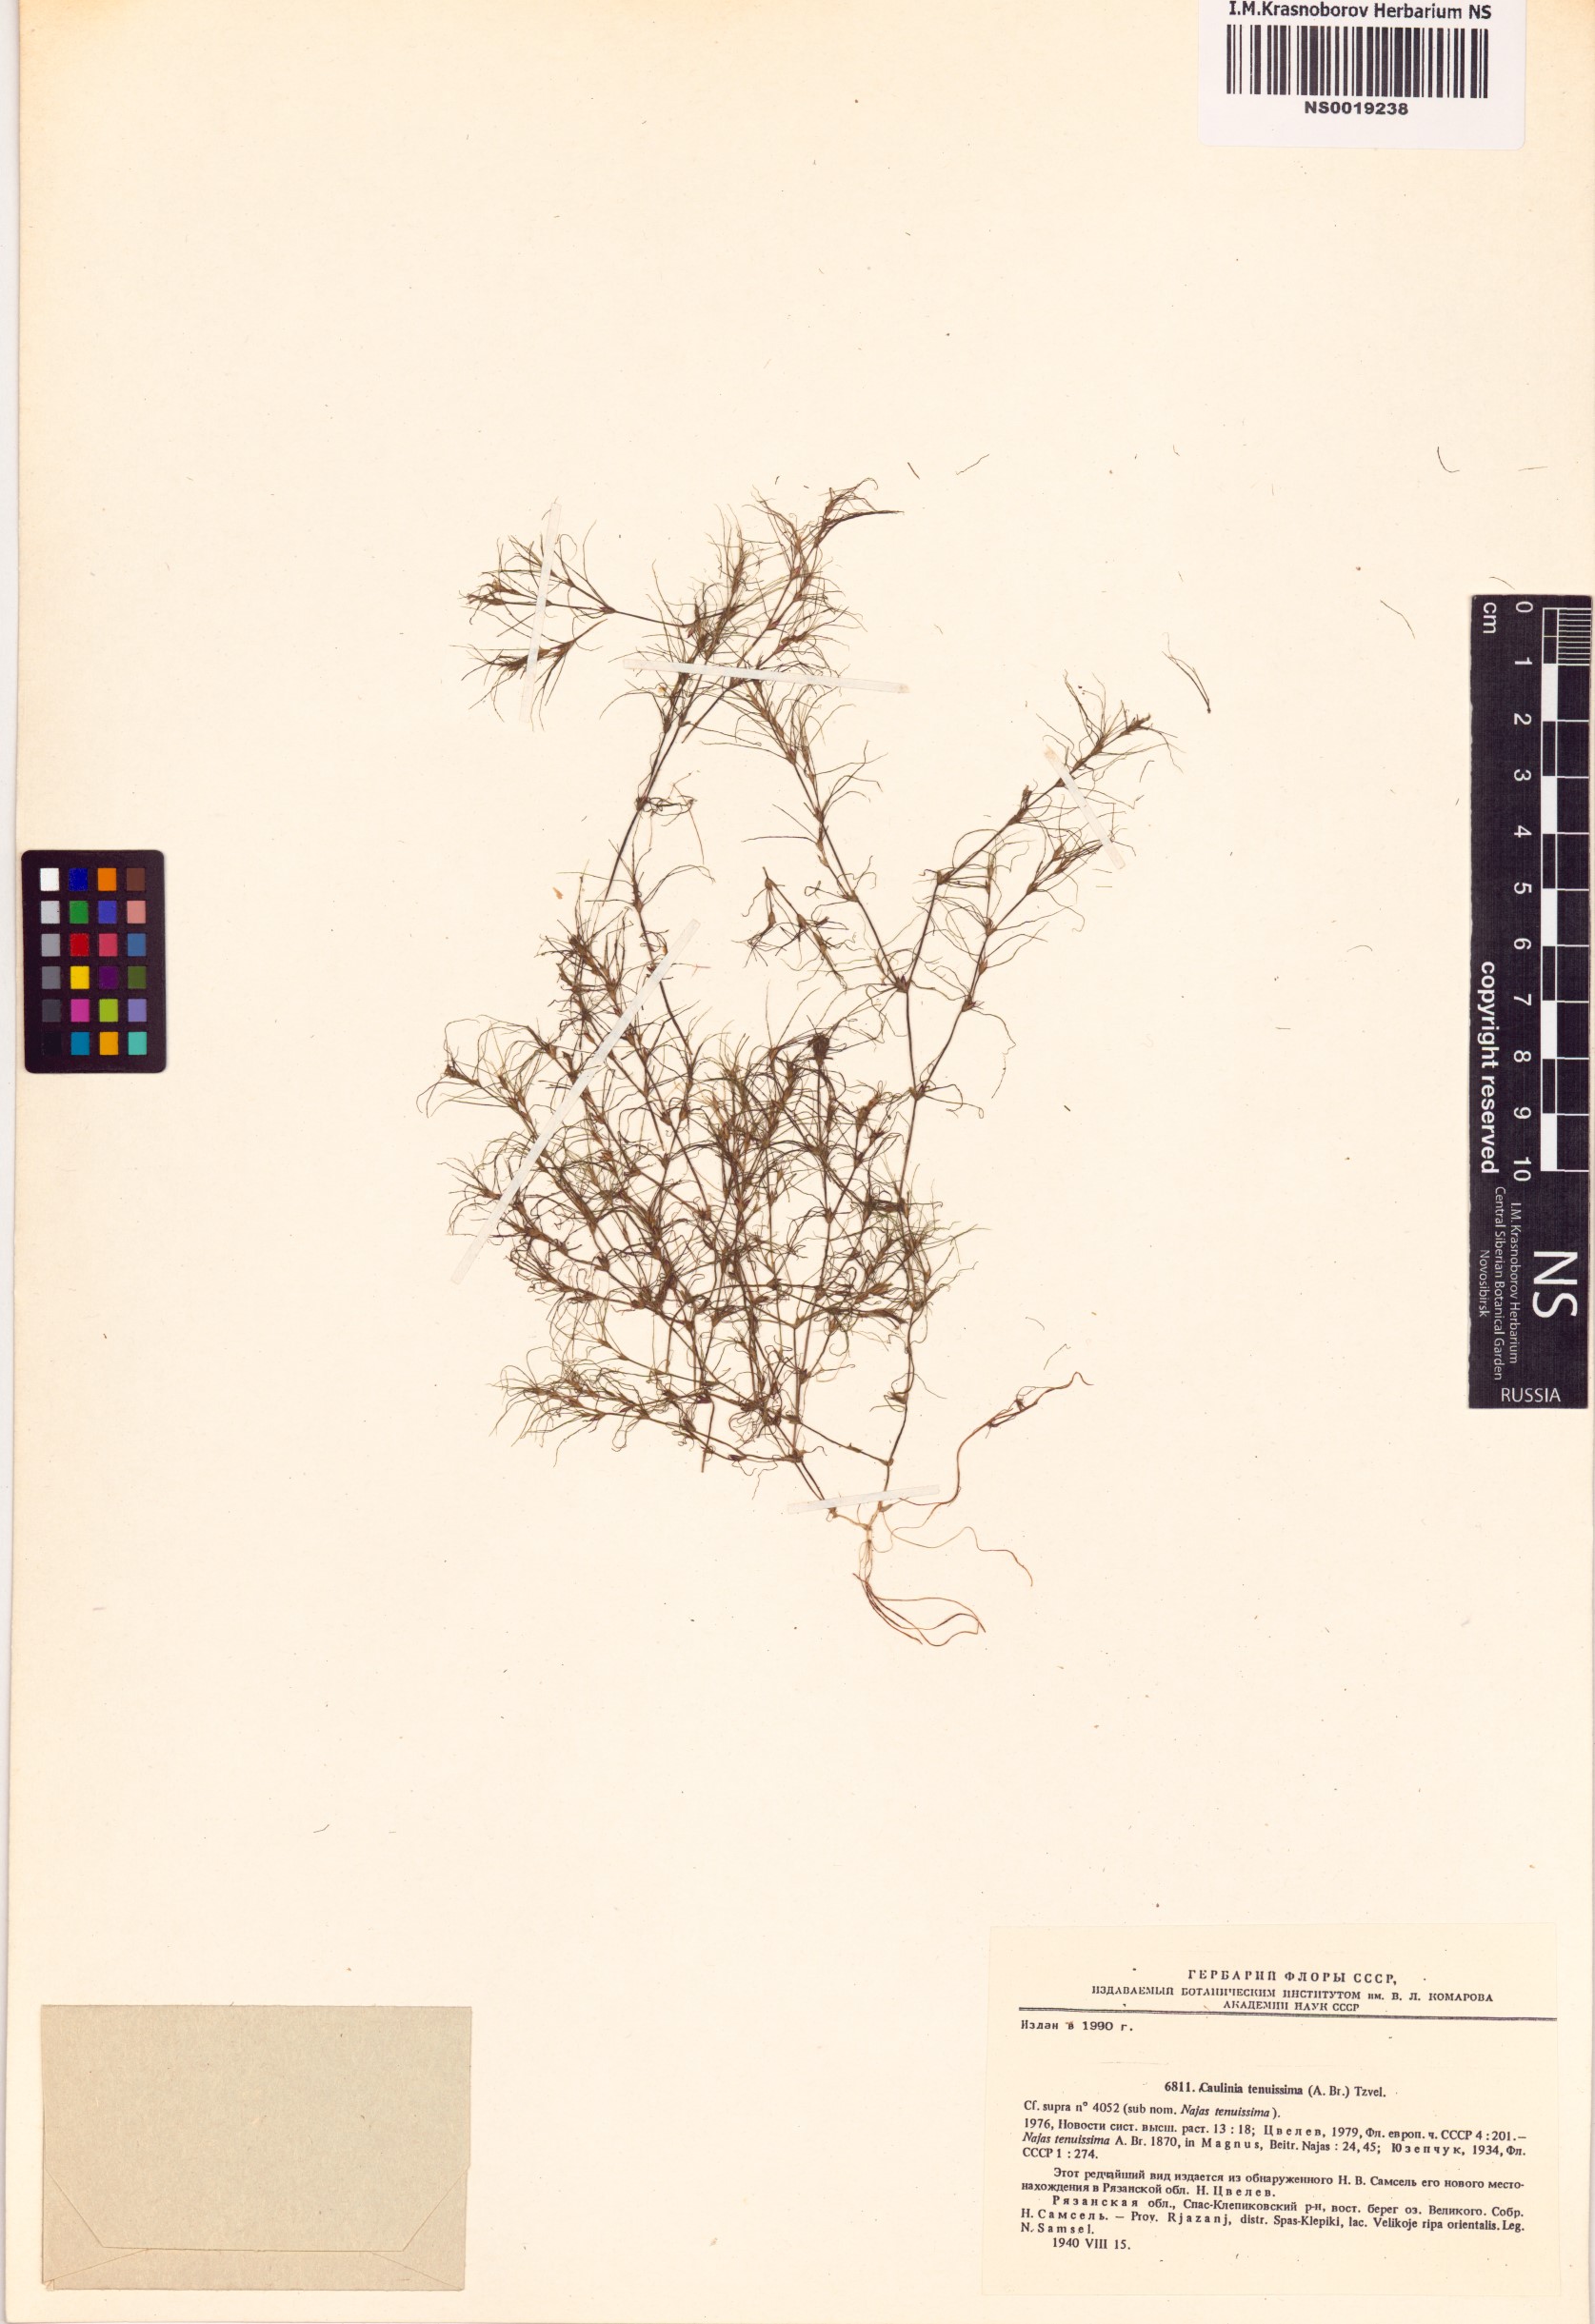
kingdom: Plantae
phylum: Tracheophyta
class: Liliopsida
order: Alismatales
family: Hydrocharitaceae
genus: Najas
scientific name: Najas tenuissima
